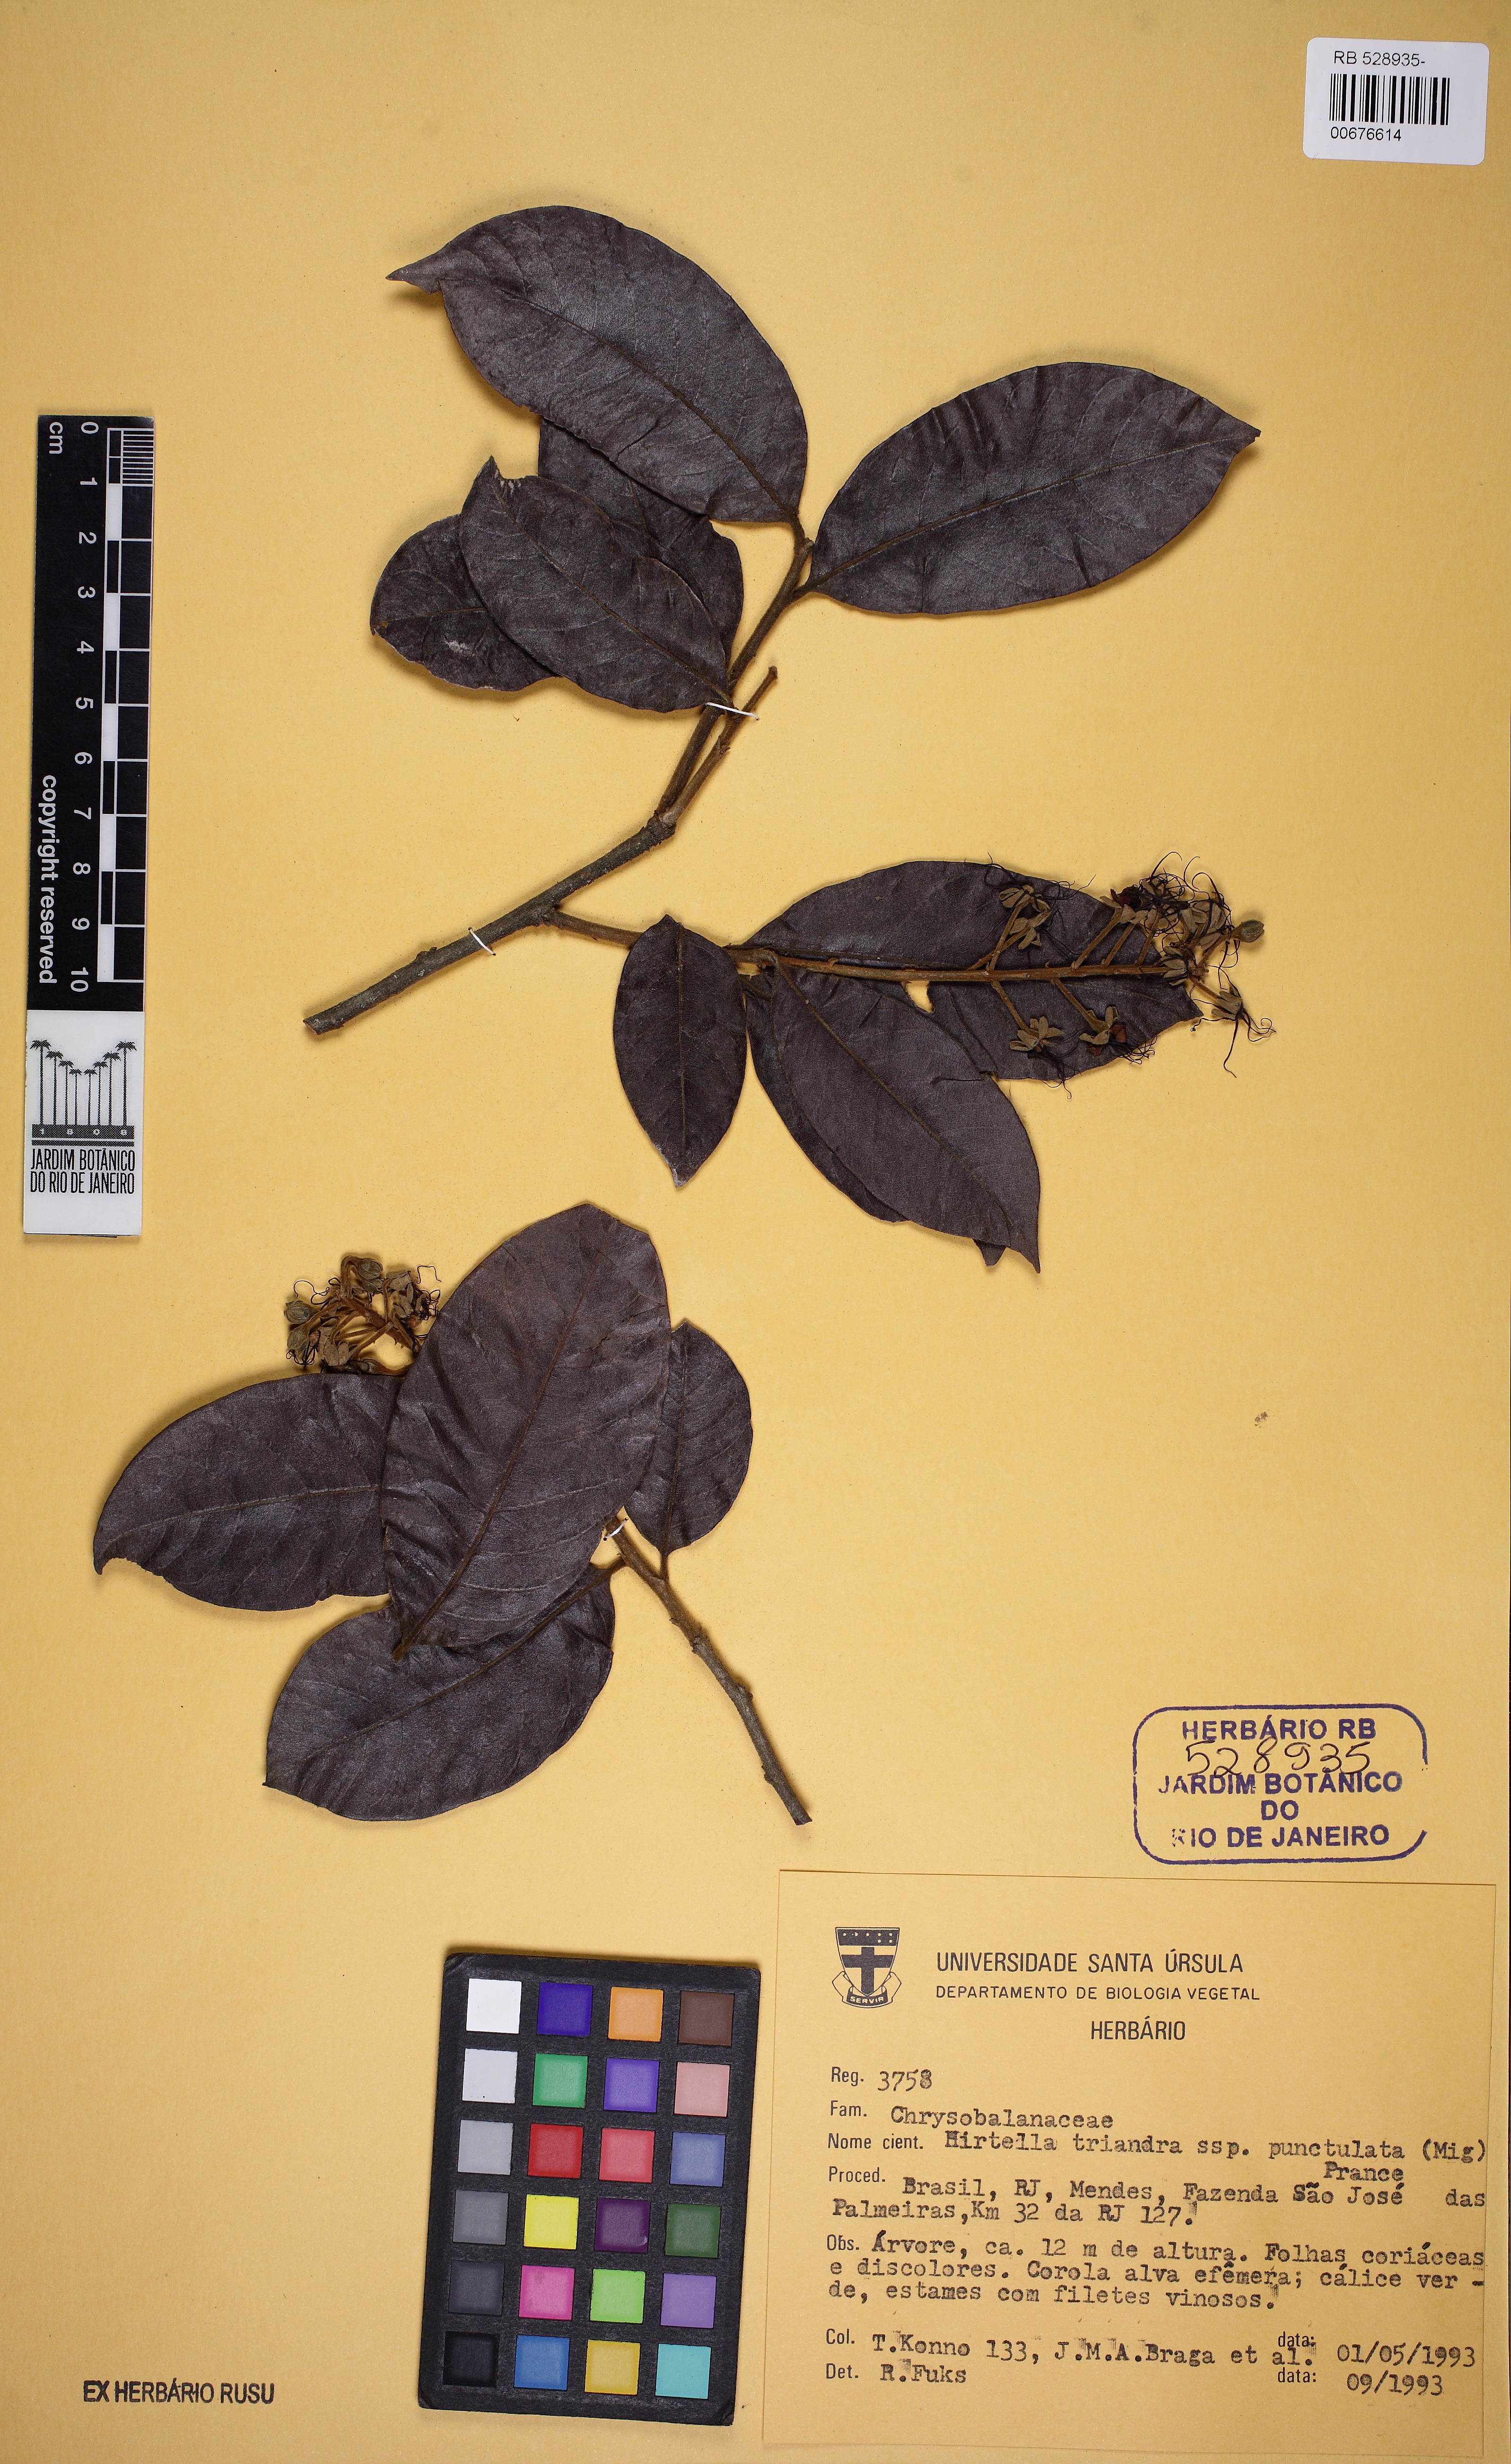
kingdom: Plantae
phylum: Tracheophyta
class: Magnoliopsida
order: Malpighiales
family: Chrysobalanaceae
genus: Hirtella
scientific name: Hirtella hebeclada
